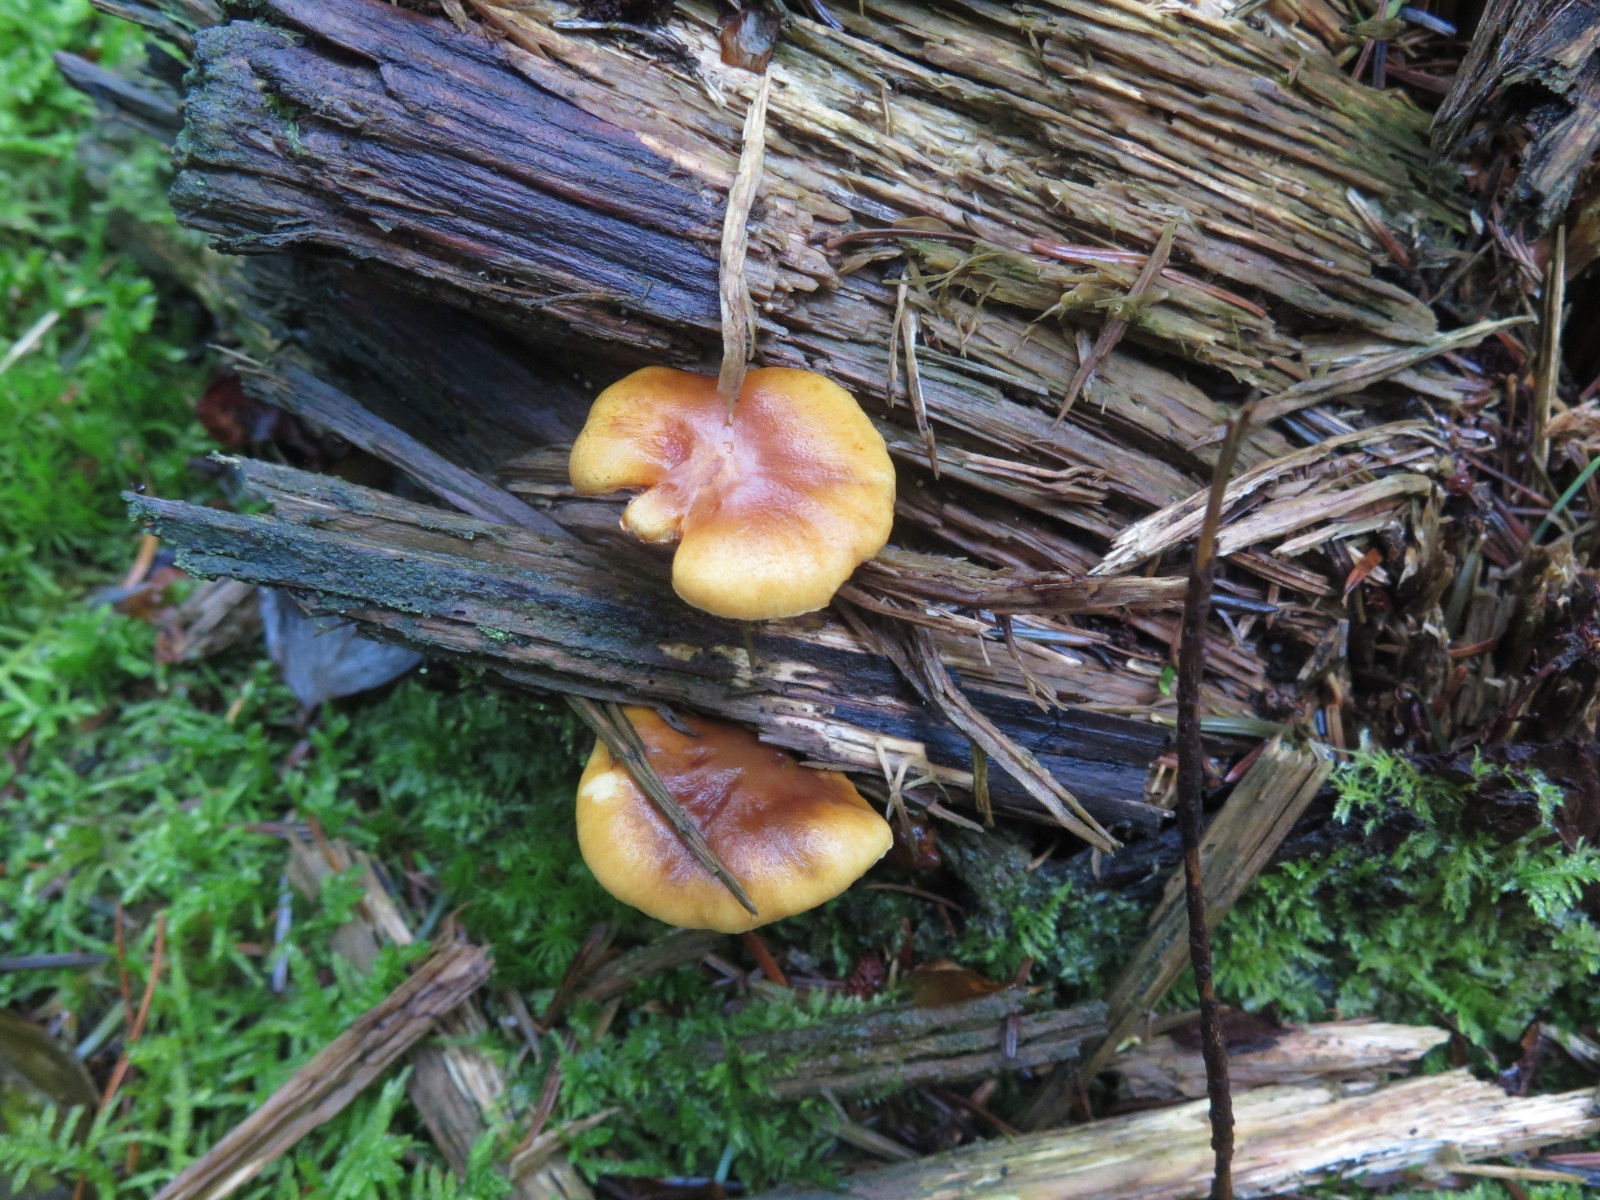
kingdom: Fungi
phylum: Basidiomycota
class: Agaricomycetes
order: Agaricales
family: Hymenogastraceae
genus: Gymnopilus
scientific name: Gymnopilus penetrans
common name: plettet flammehat
